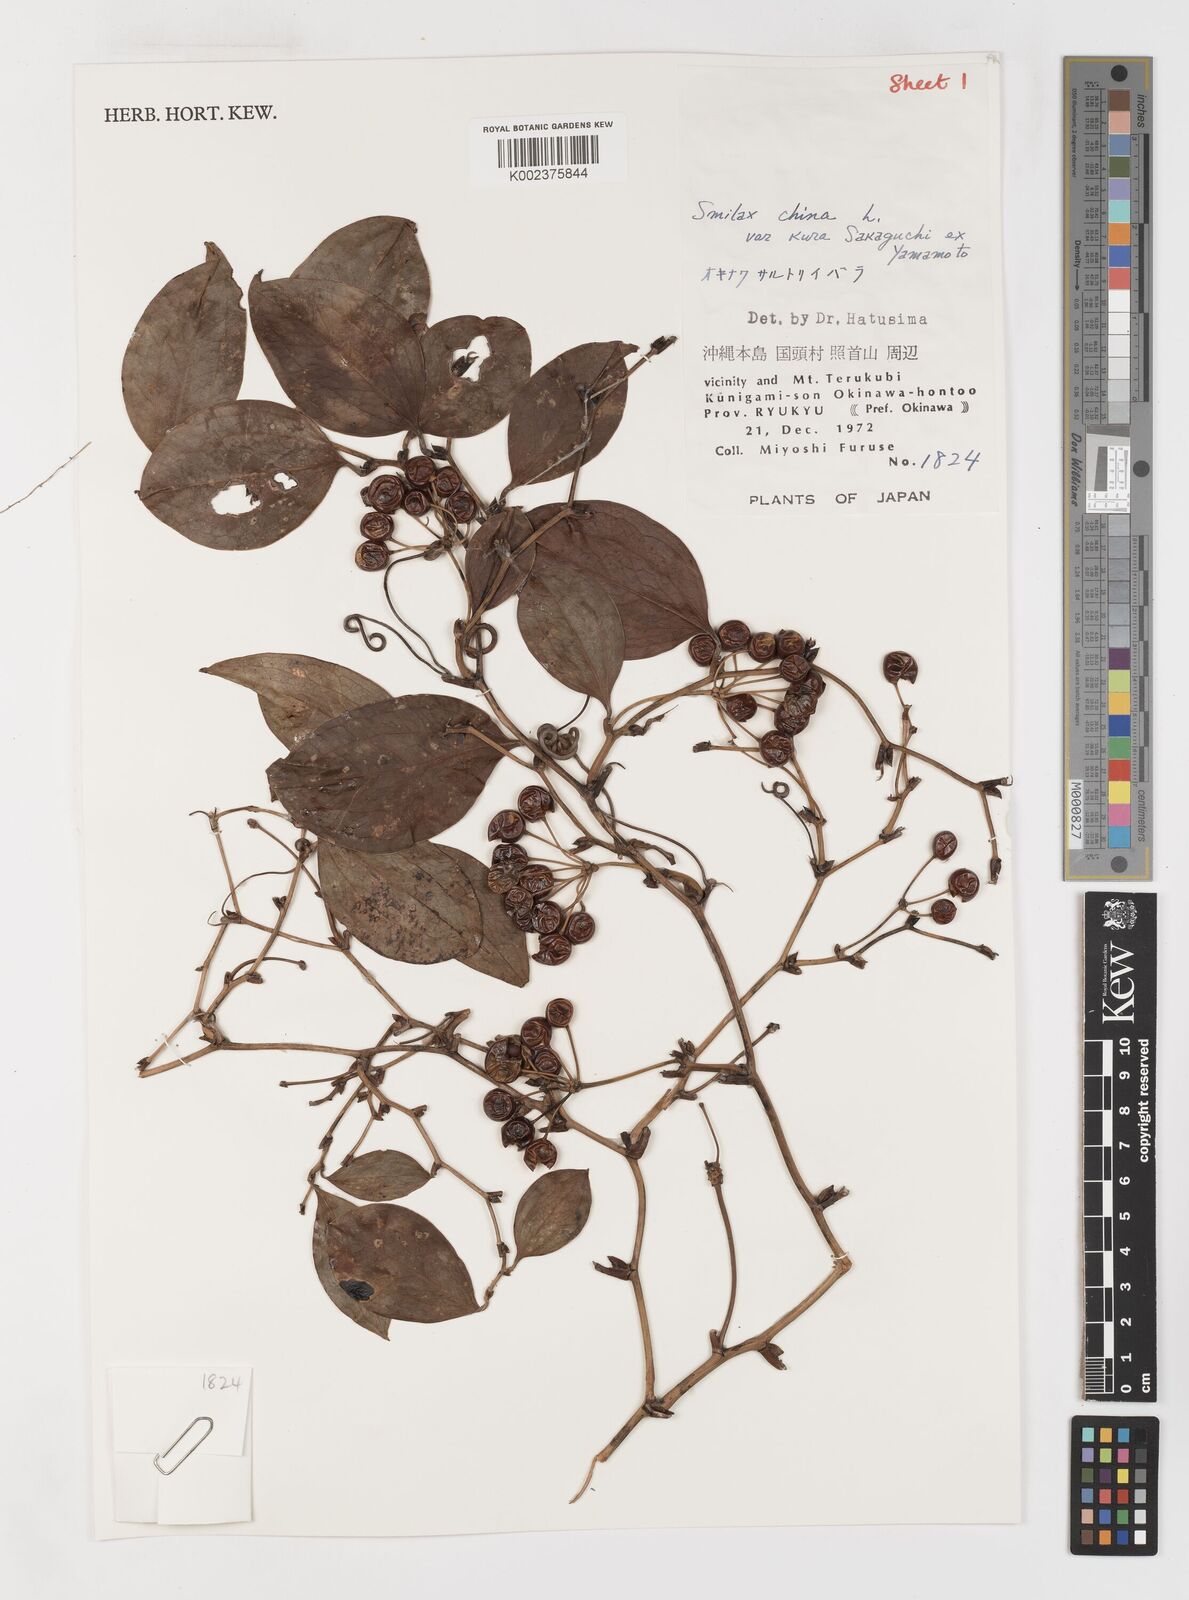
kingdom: Plantae
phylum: Tracheophyta
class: Liliopsida
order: Liliales
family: Smilacaceae
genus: Smilax
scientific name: Smilax china
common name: Chinaroot
